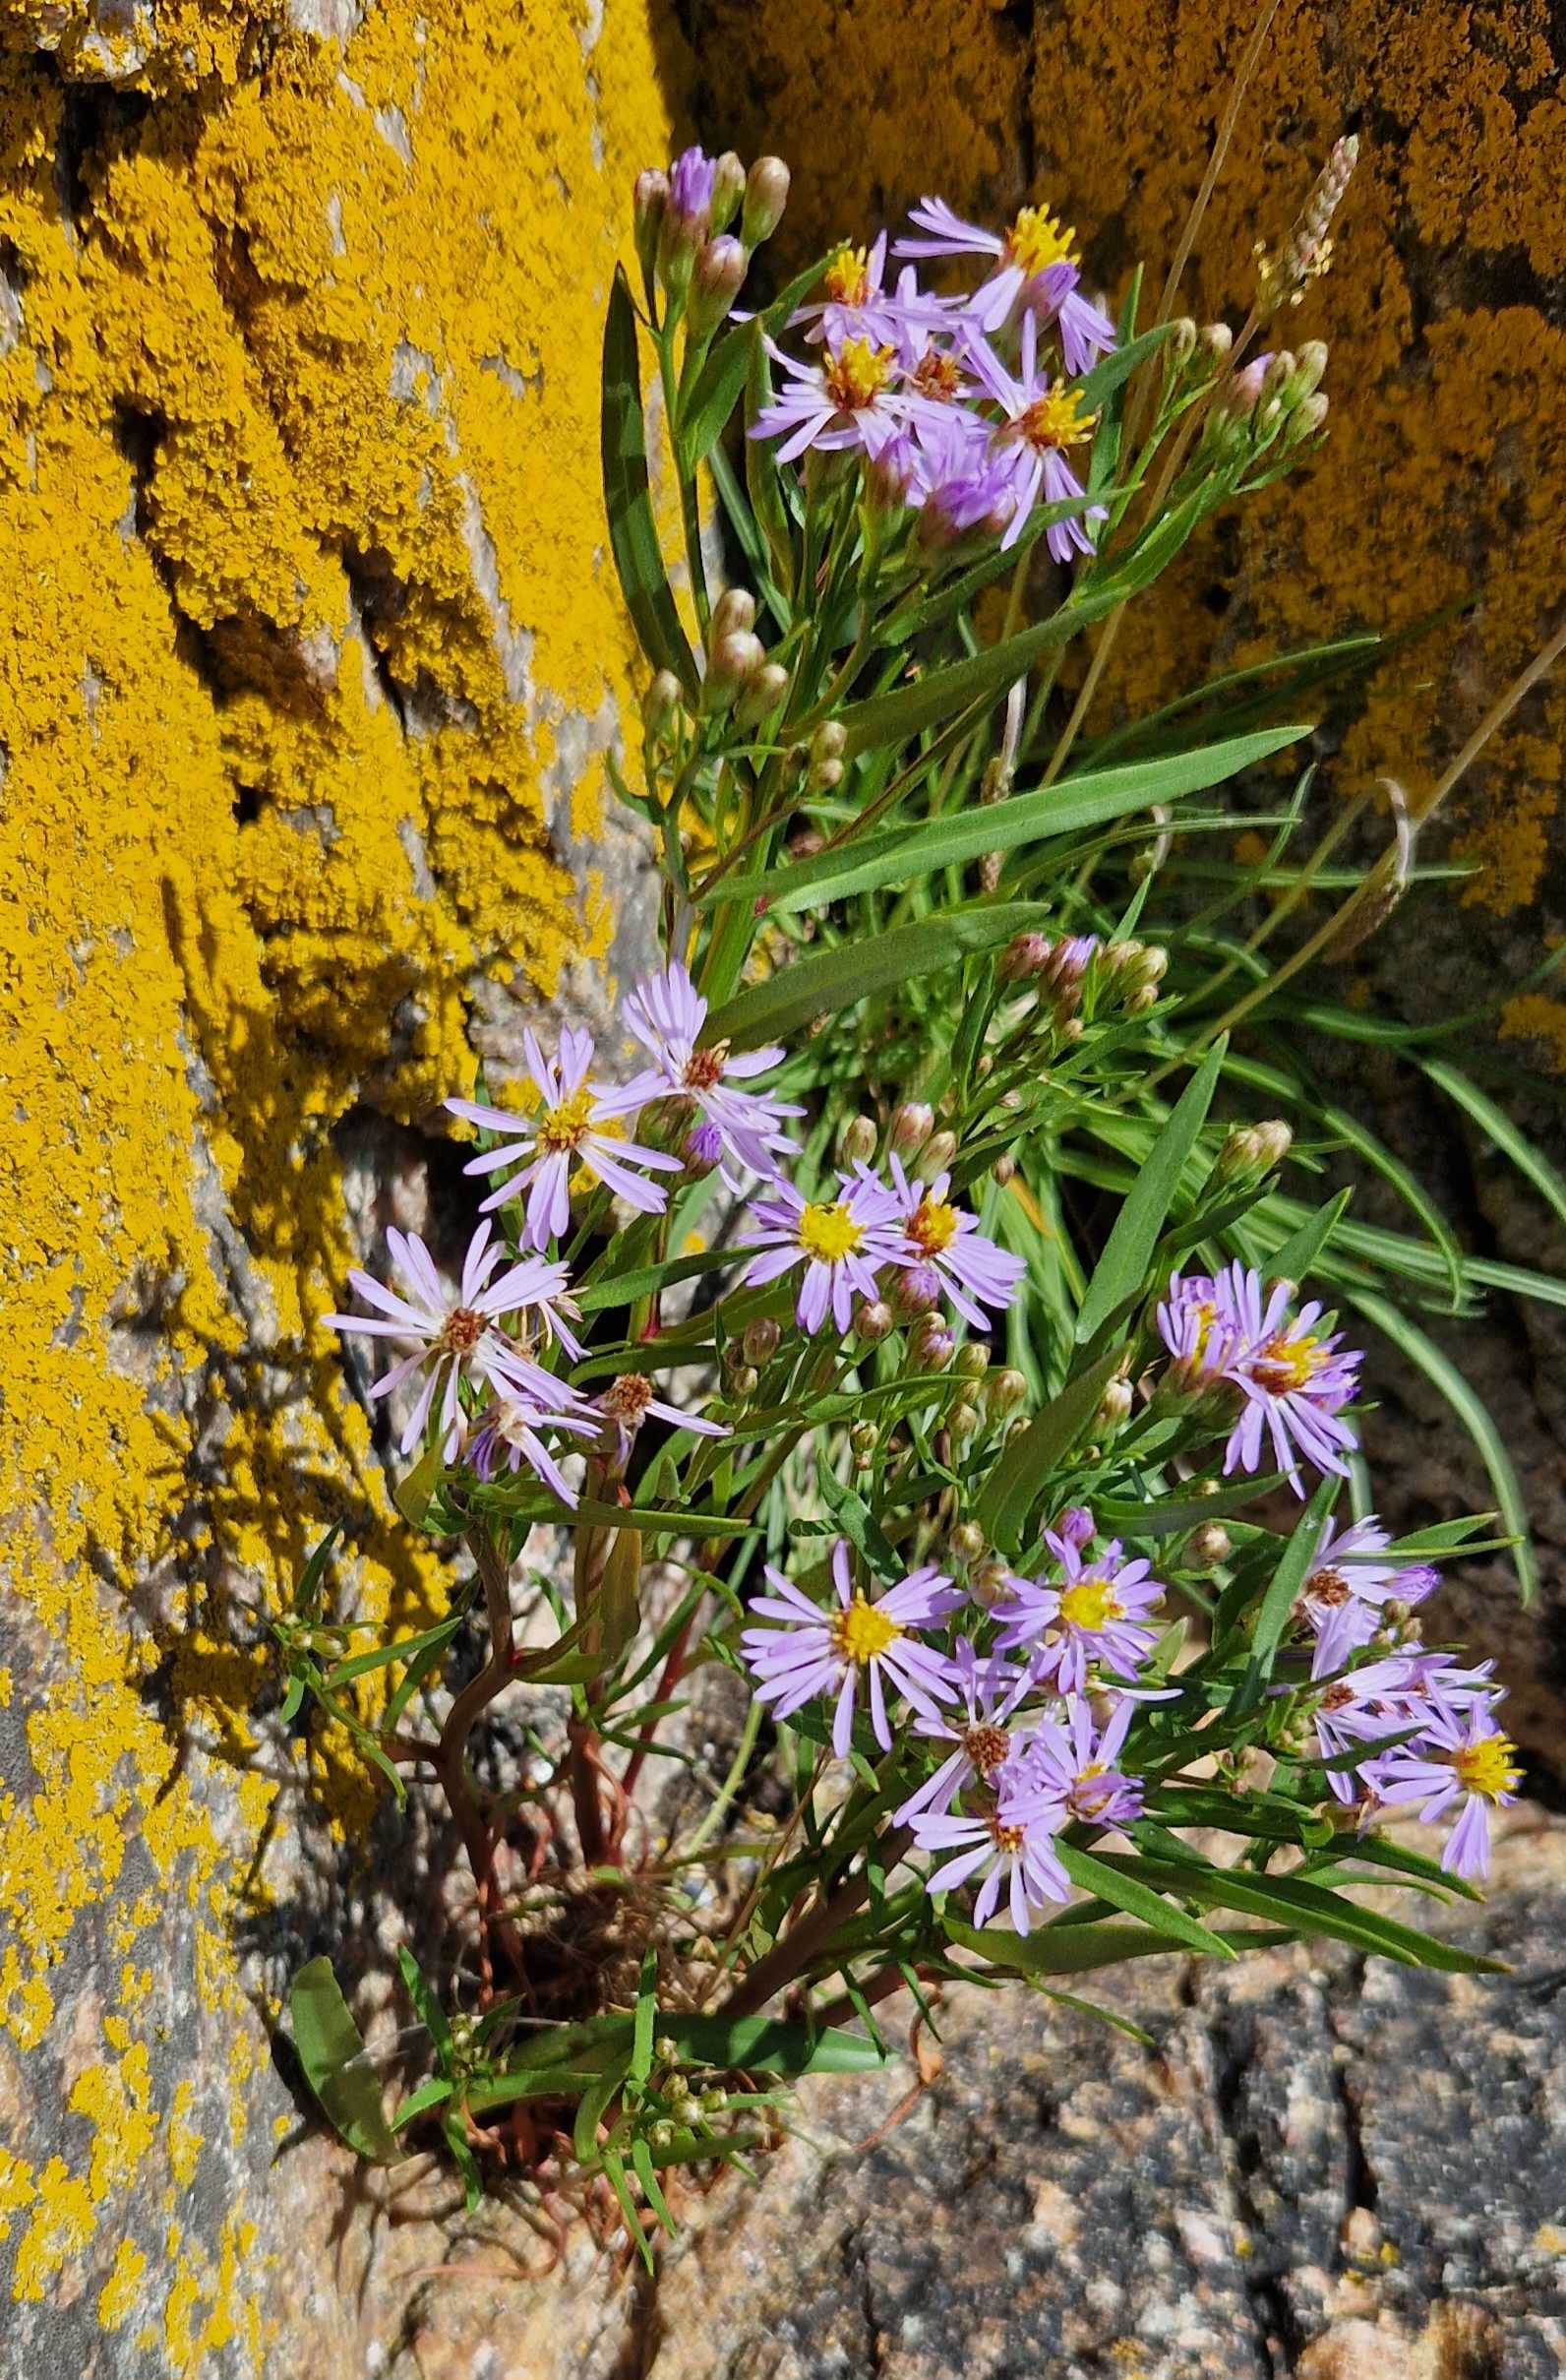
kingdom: Plantae
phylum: Tracheophyta
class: Magnoliopsida
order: Asterales
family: Asteraceae
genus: Tripolium
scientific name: Tripolium pannonicum
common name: Strandasters
